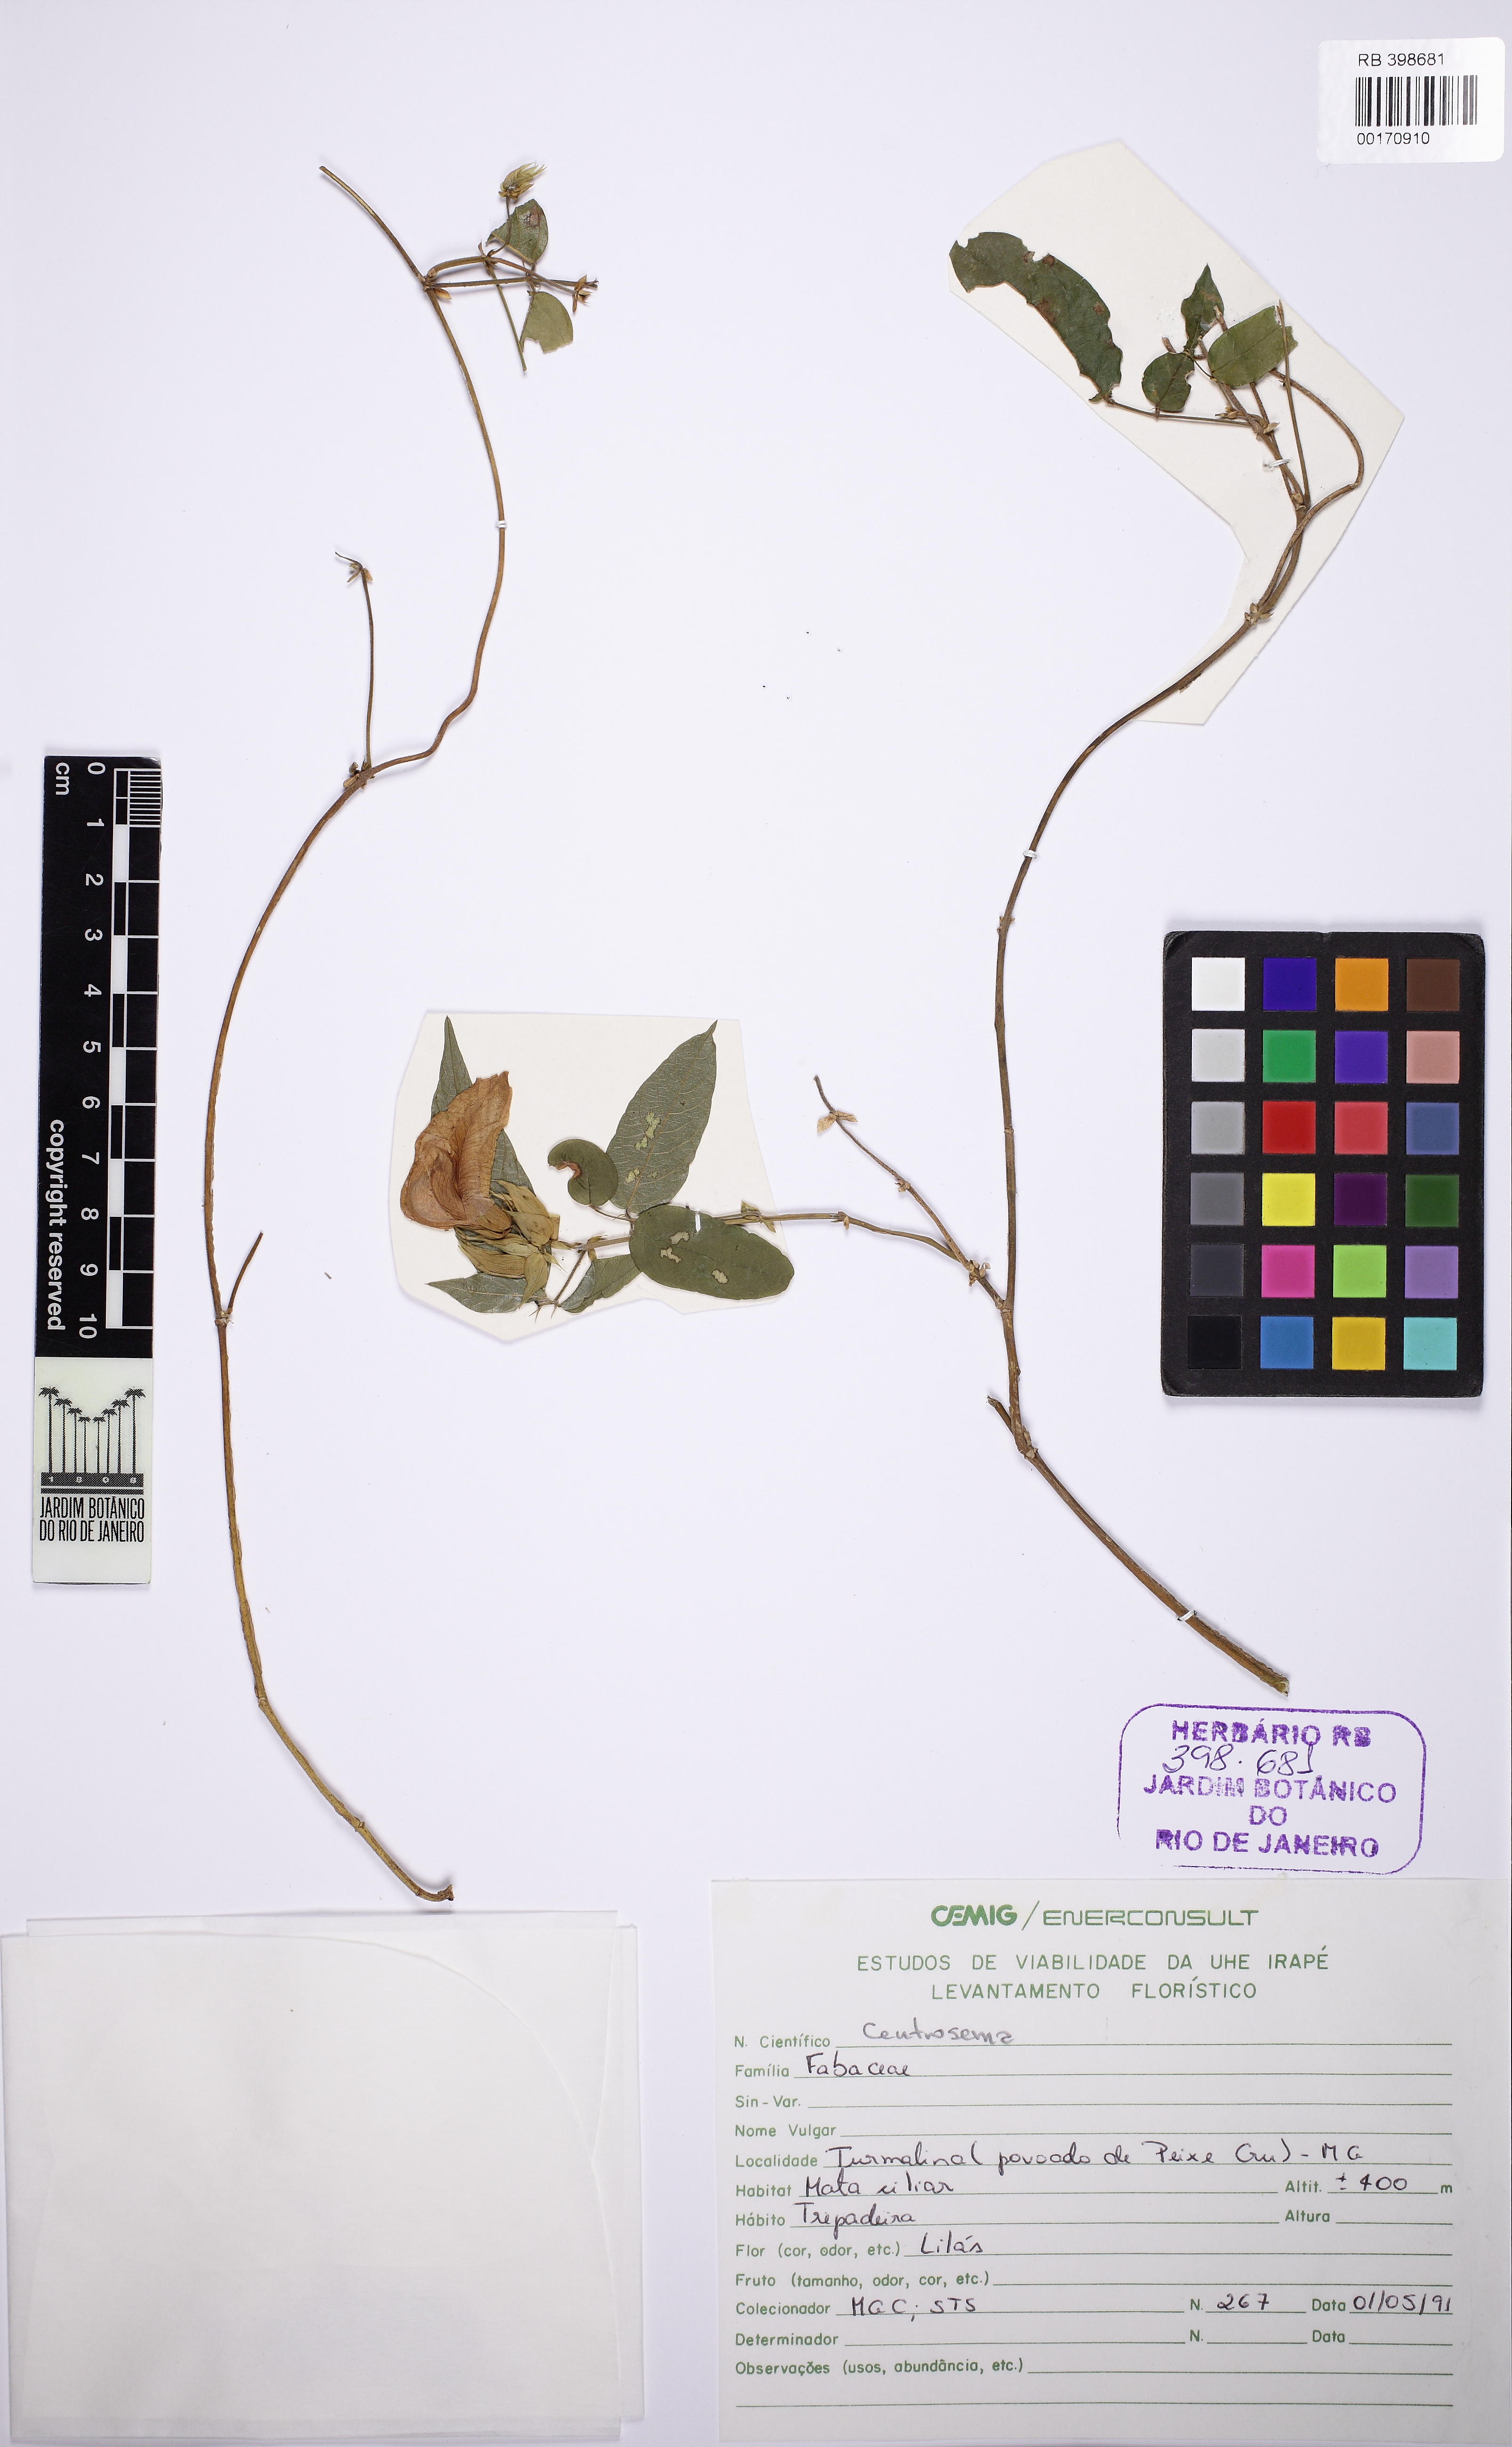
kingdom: Plantae
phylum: Tracheophyta
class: Magnoliopsida
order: Fabales
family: Fabaceae
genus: Centrosema
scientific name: Centrosema
